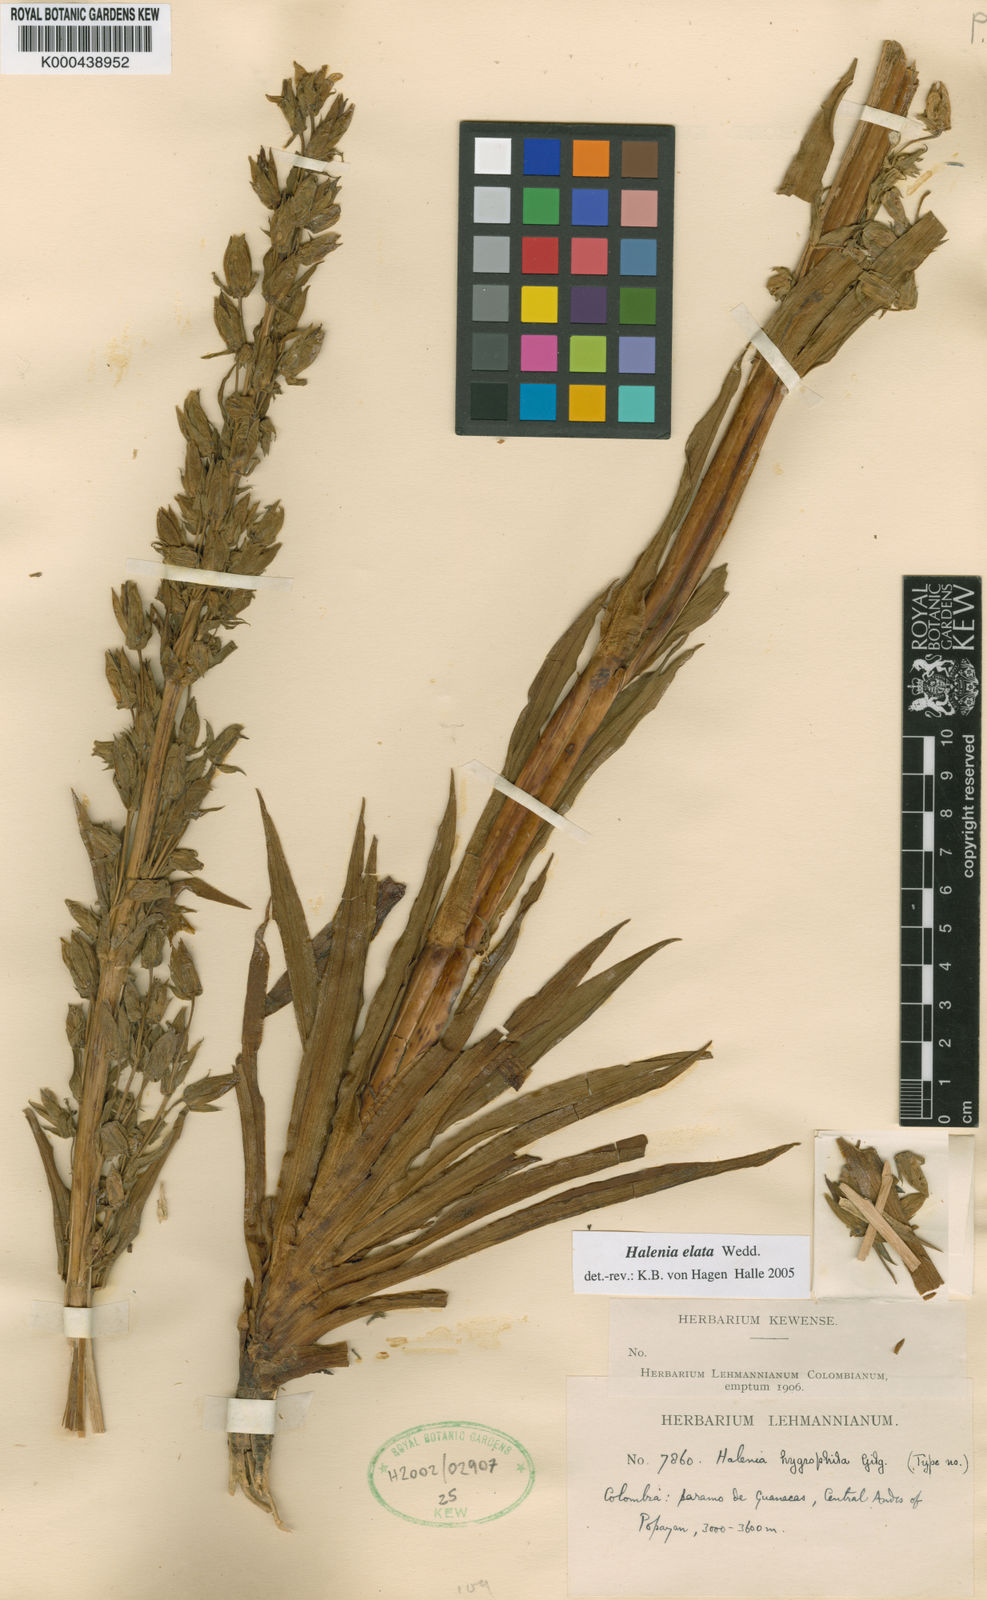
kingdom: Plantae
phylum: Tracheophyta
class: Magnoliopsida
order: Gentianales
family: Gentianaceae
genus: Halenia
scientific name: Halenia elata
